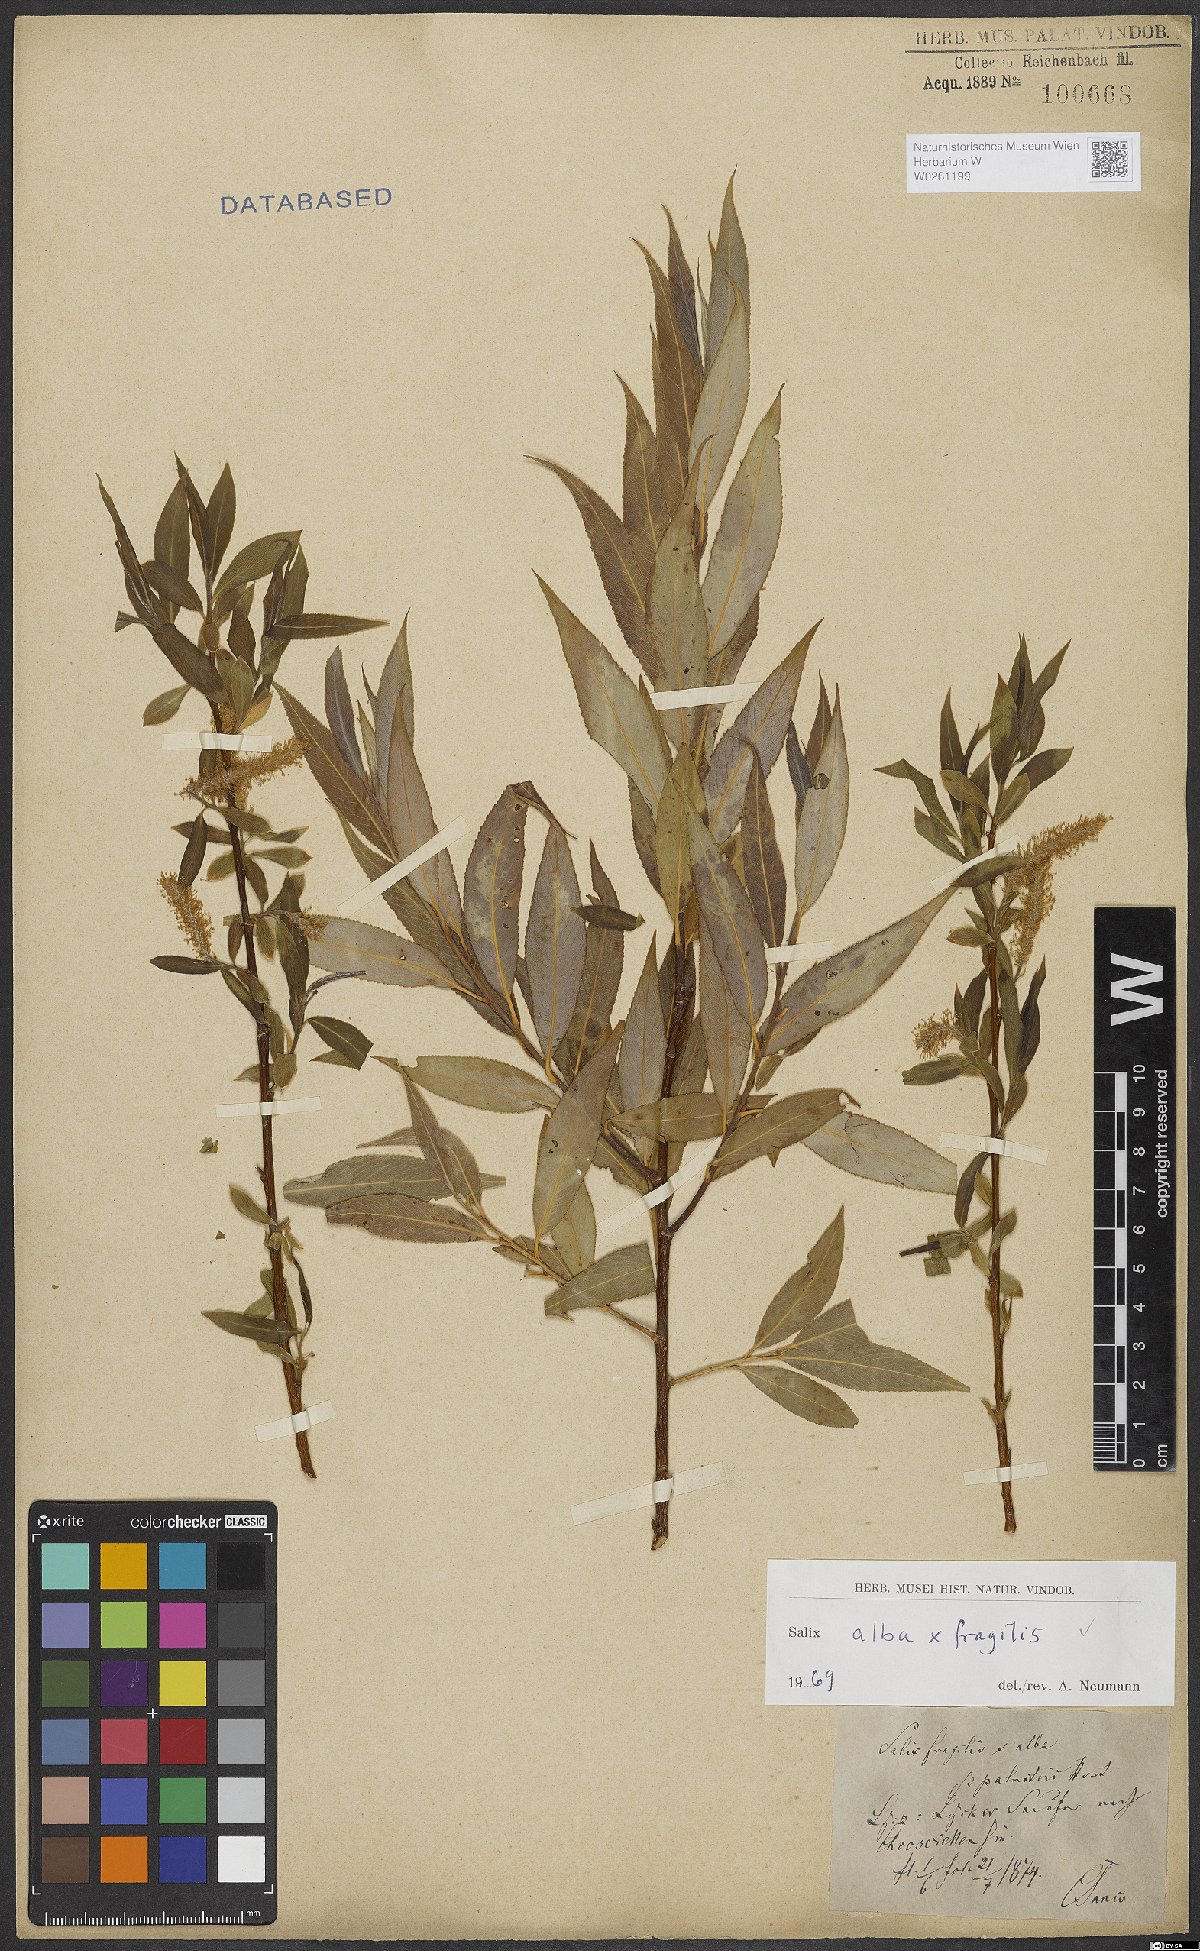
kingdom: Plantae
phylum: Tracheophyta
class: Magnoliopsida
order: Malpighiales
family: Salicaceae
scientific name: Salicaceae
